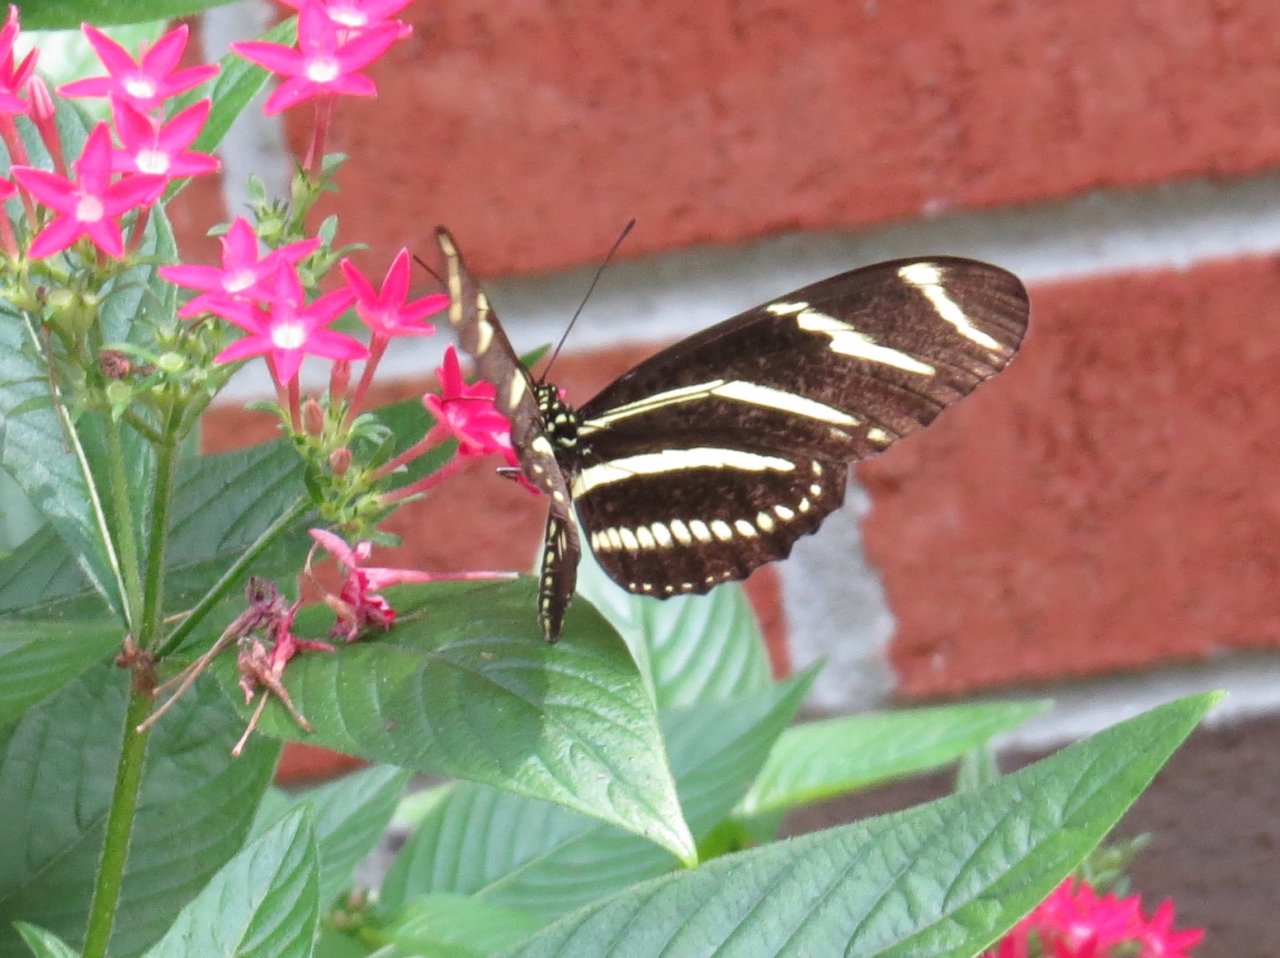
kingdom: Animalia
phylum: Arthropoda
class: Insecta
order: Lepidoptera
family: Nymphalidae
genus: Heliconius
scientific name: Heliconius charithonia
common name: Zebra Longwing
